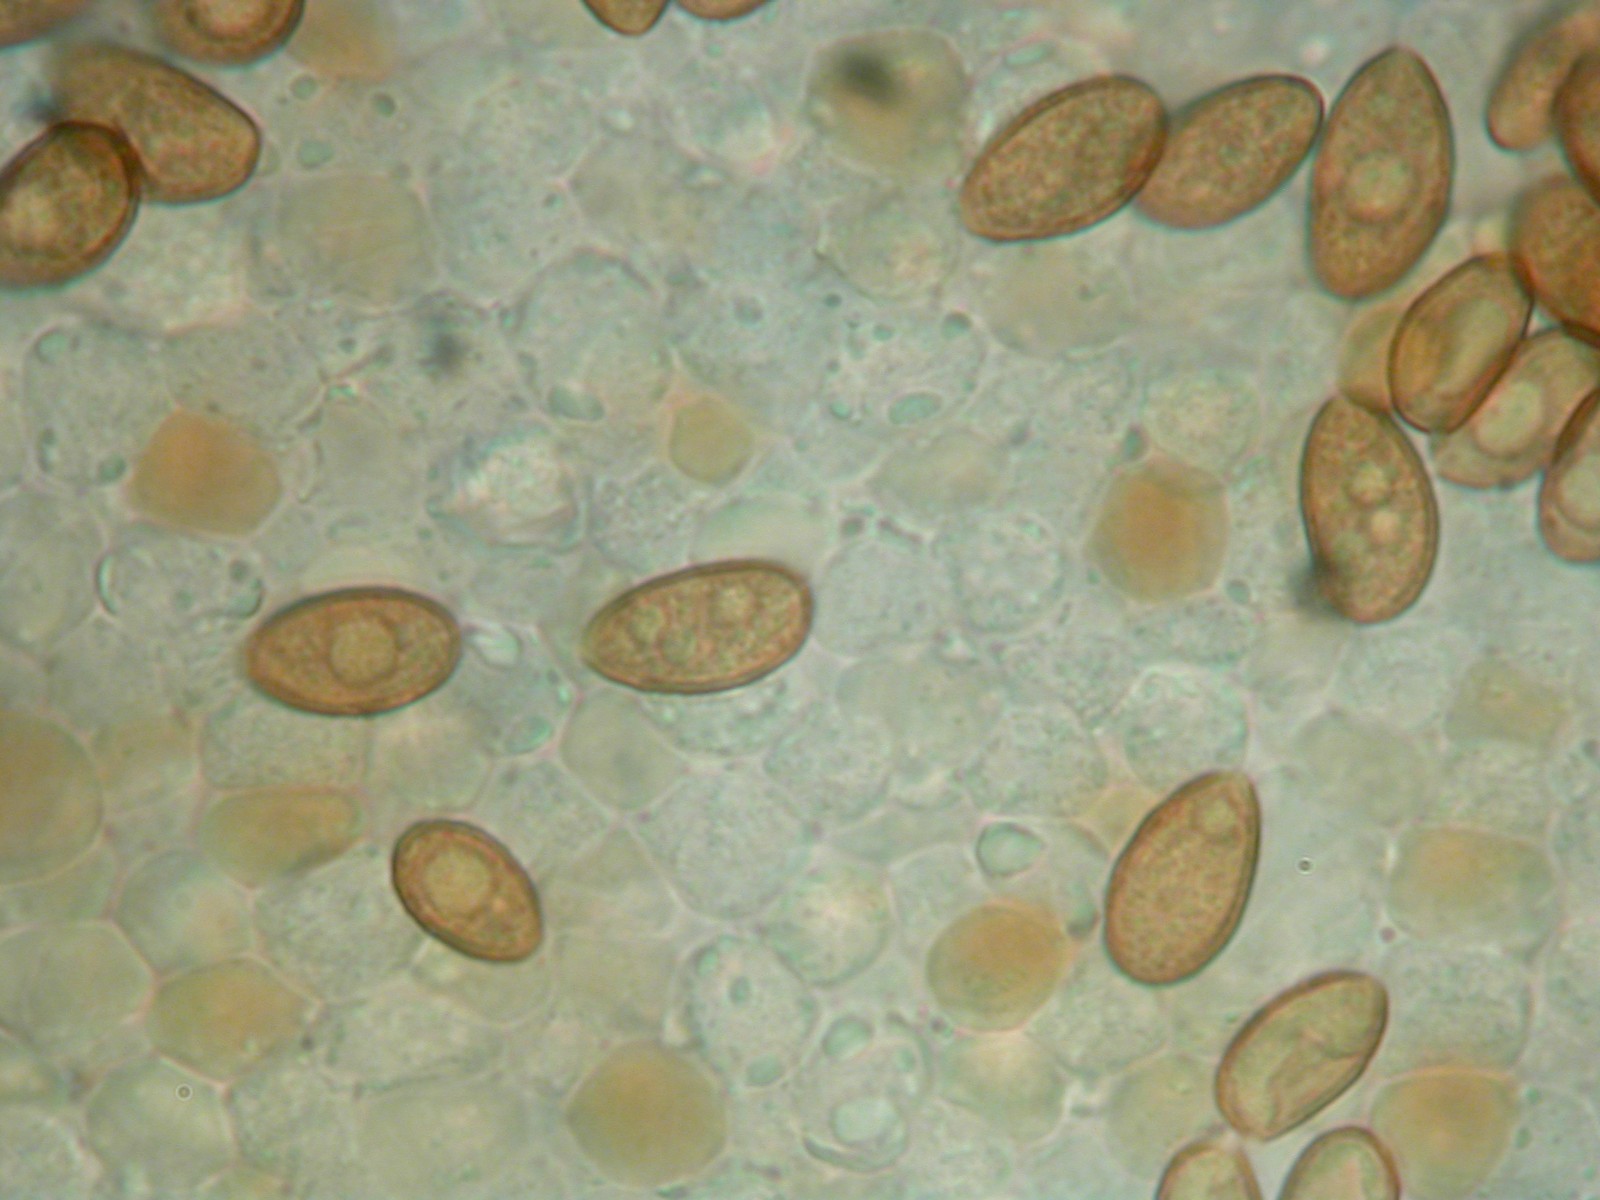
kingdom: Fungi
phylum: Basidiomycota
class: Agaricomycetes
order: Agaricales
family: Hymenogastraceae
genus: Galerina
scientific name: Galerina
